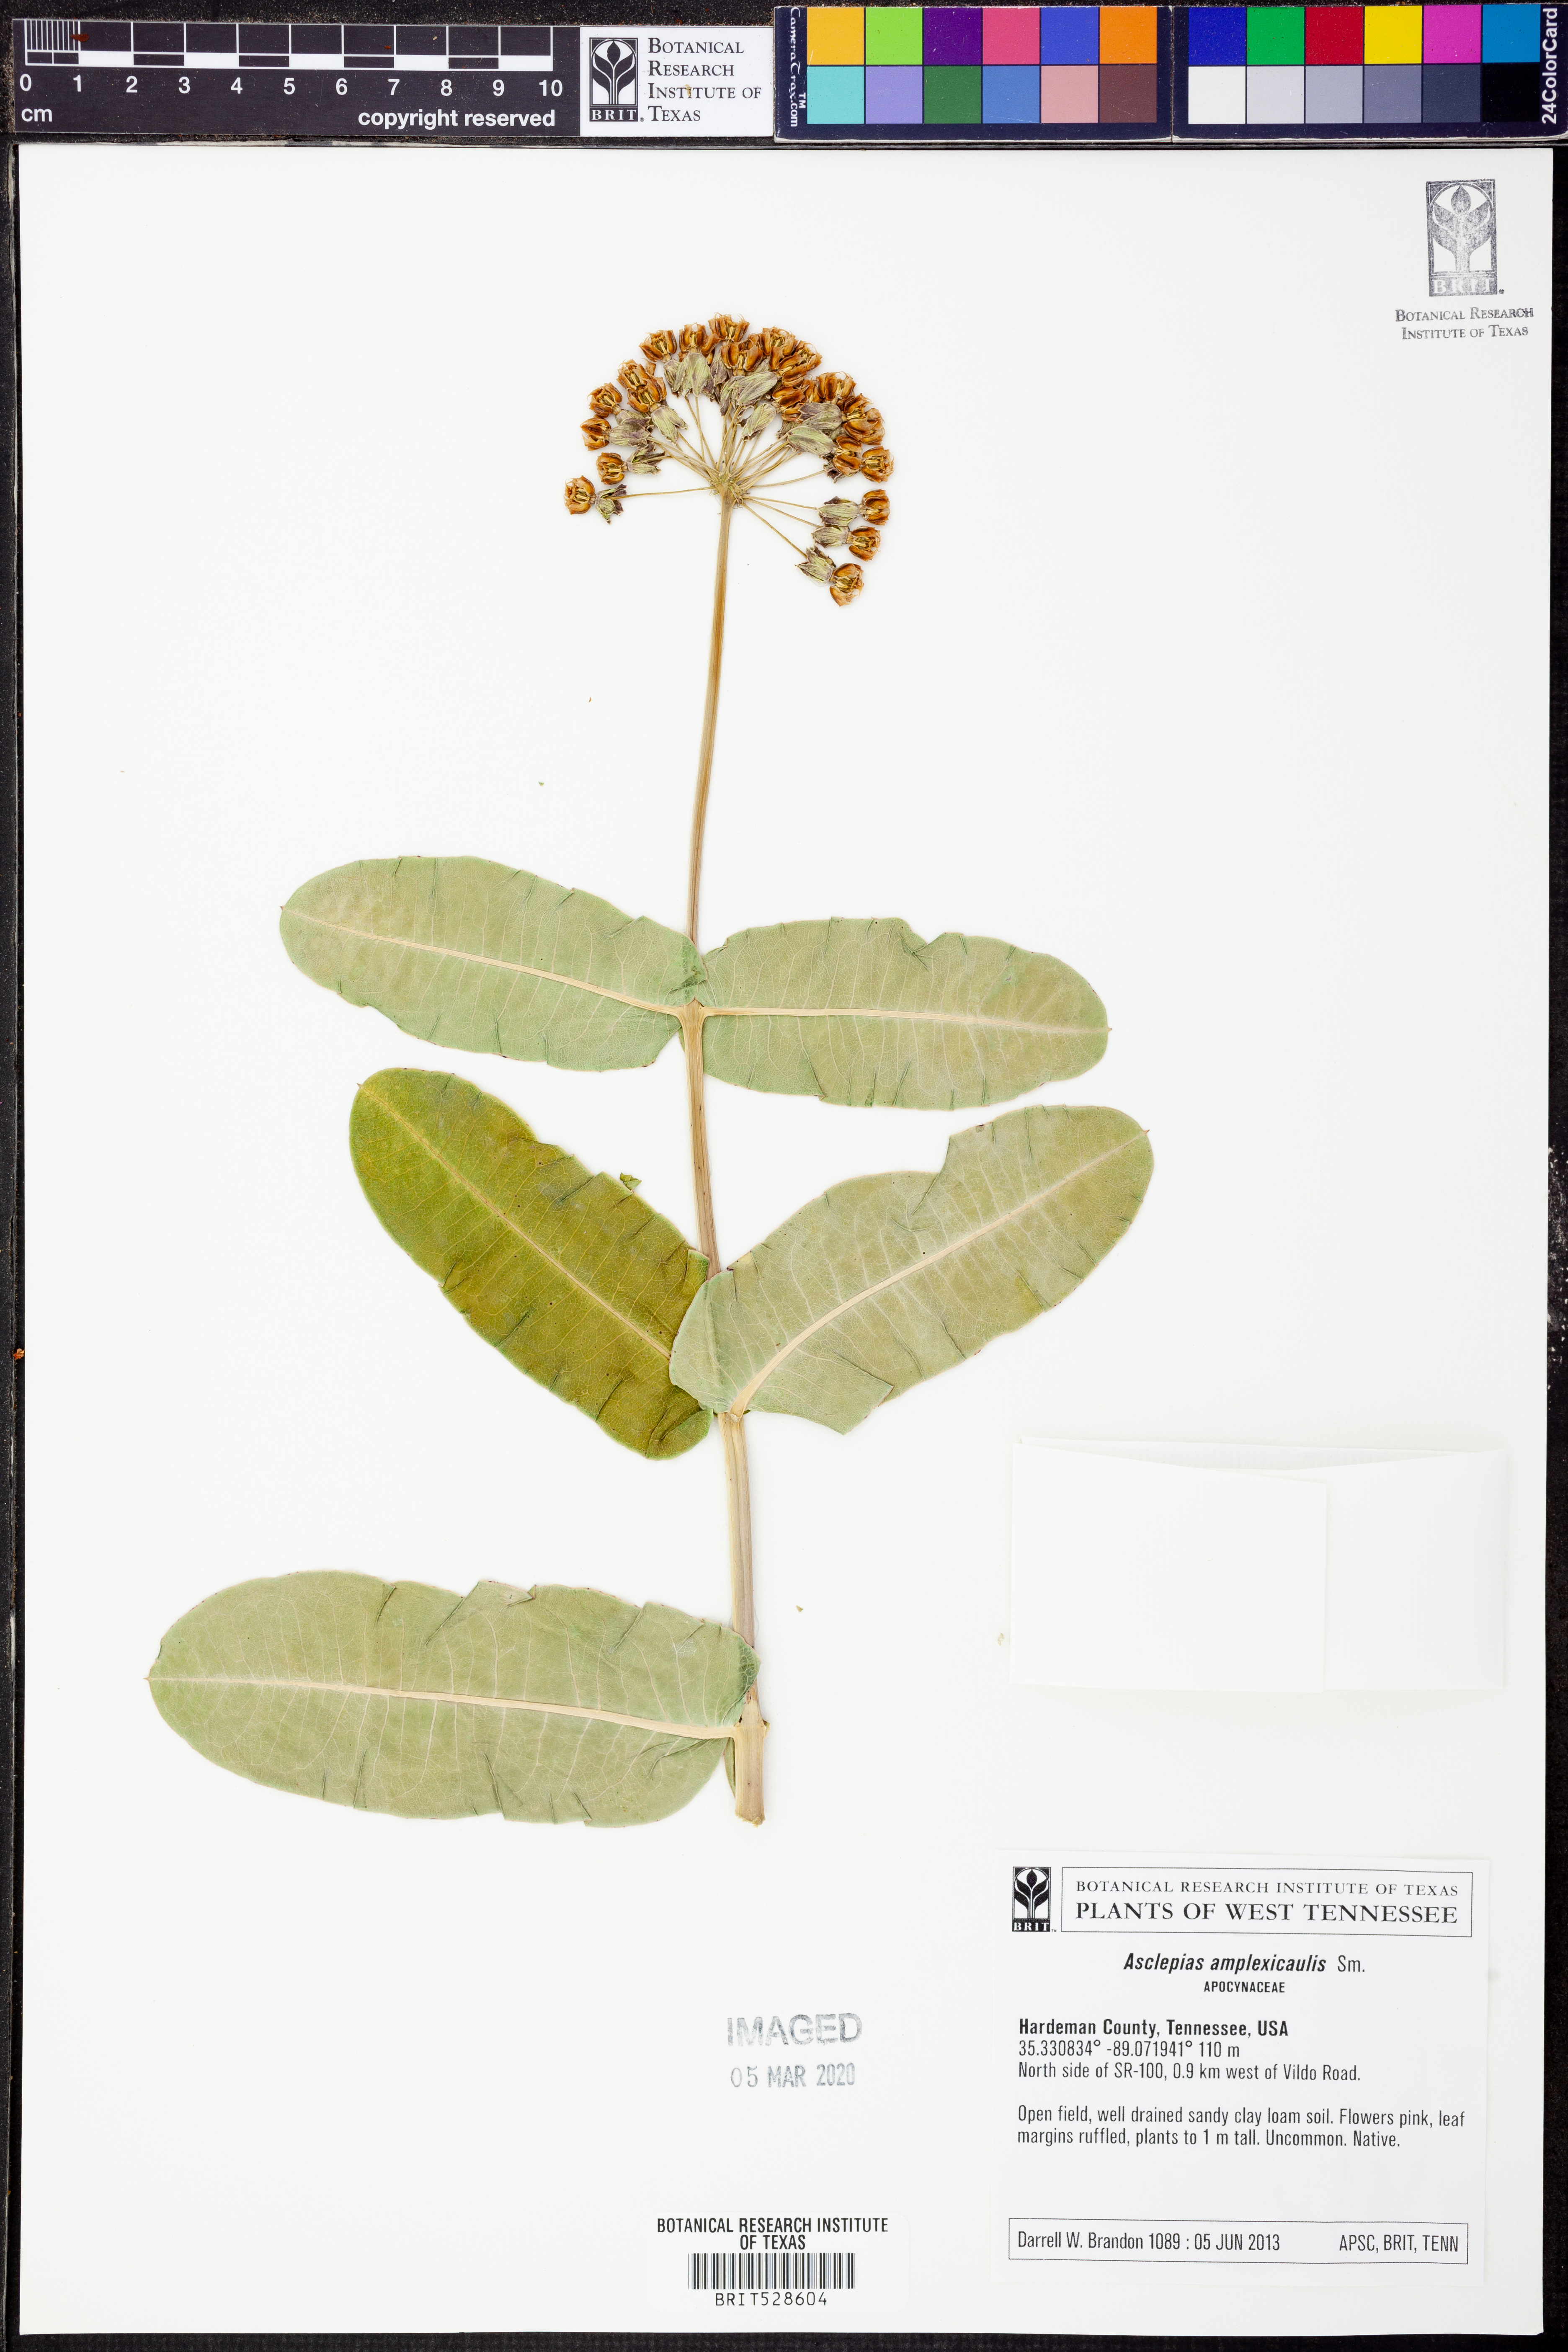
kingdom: Plantae
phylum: Tracheophyta
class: Magnoliopsida
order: Gentianales
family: Apocynaceae
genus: Asclepias
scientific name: Asclepias amplexicaulis
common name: Blunt-leaf milkweed
